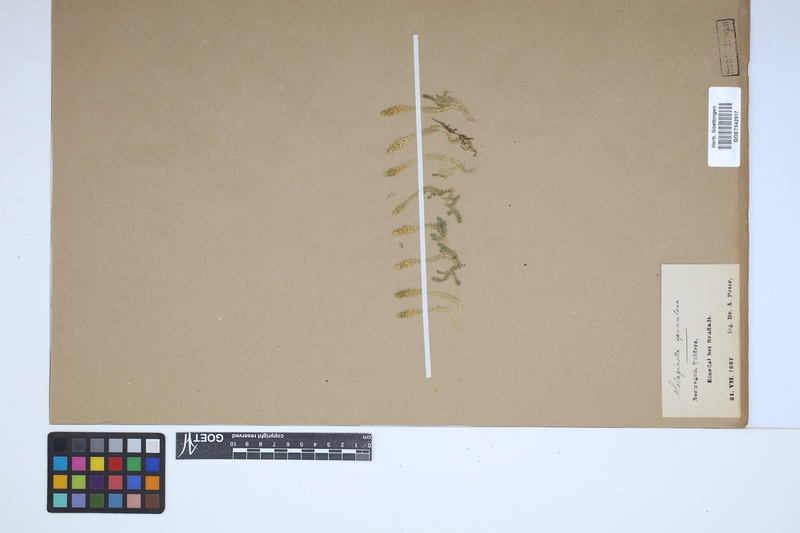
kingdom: Plantae
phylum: Tracheophyta
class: Lycopodiopsida
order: Selaginellales
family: Selaginellaceae
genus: Selaginella
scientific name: Selaginella selaginoides
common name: Prickly mountain-moss
